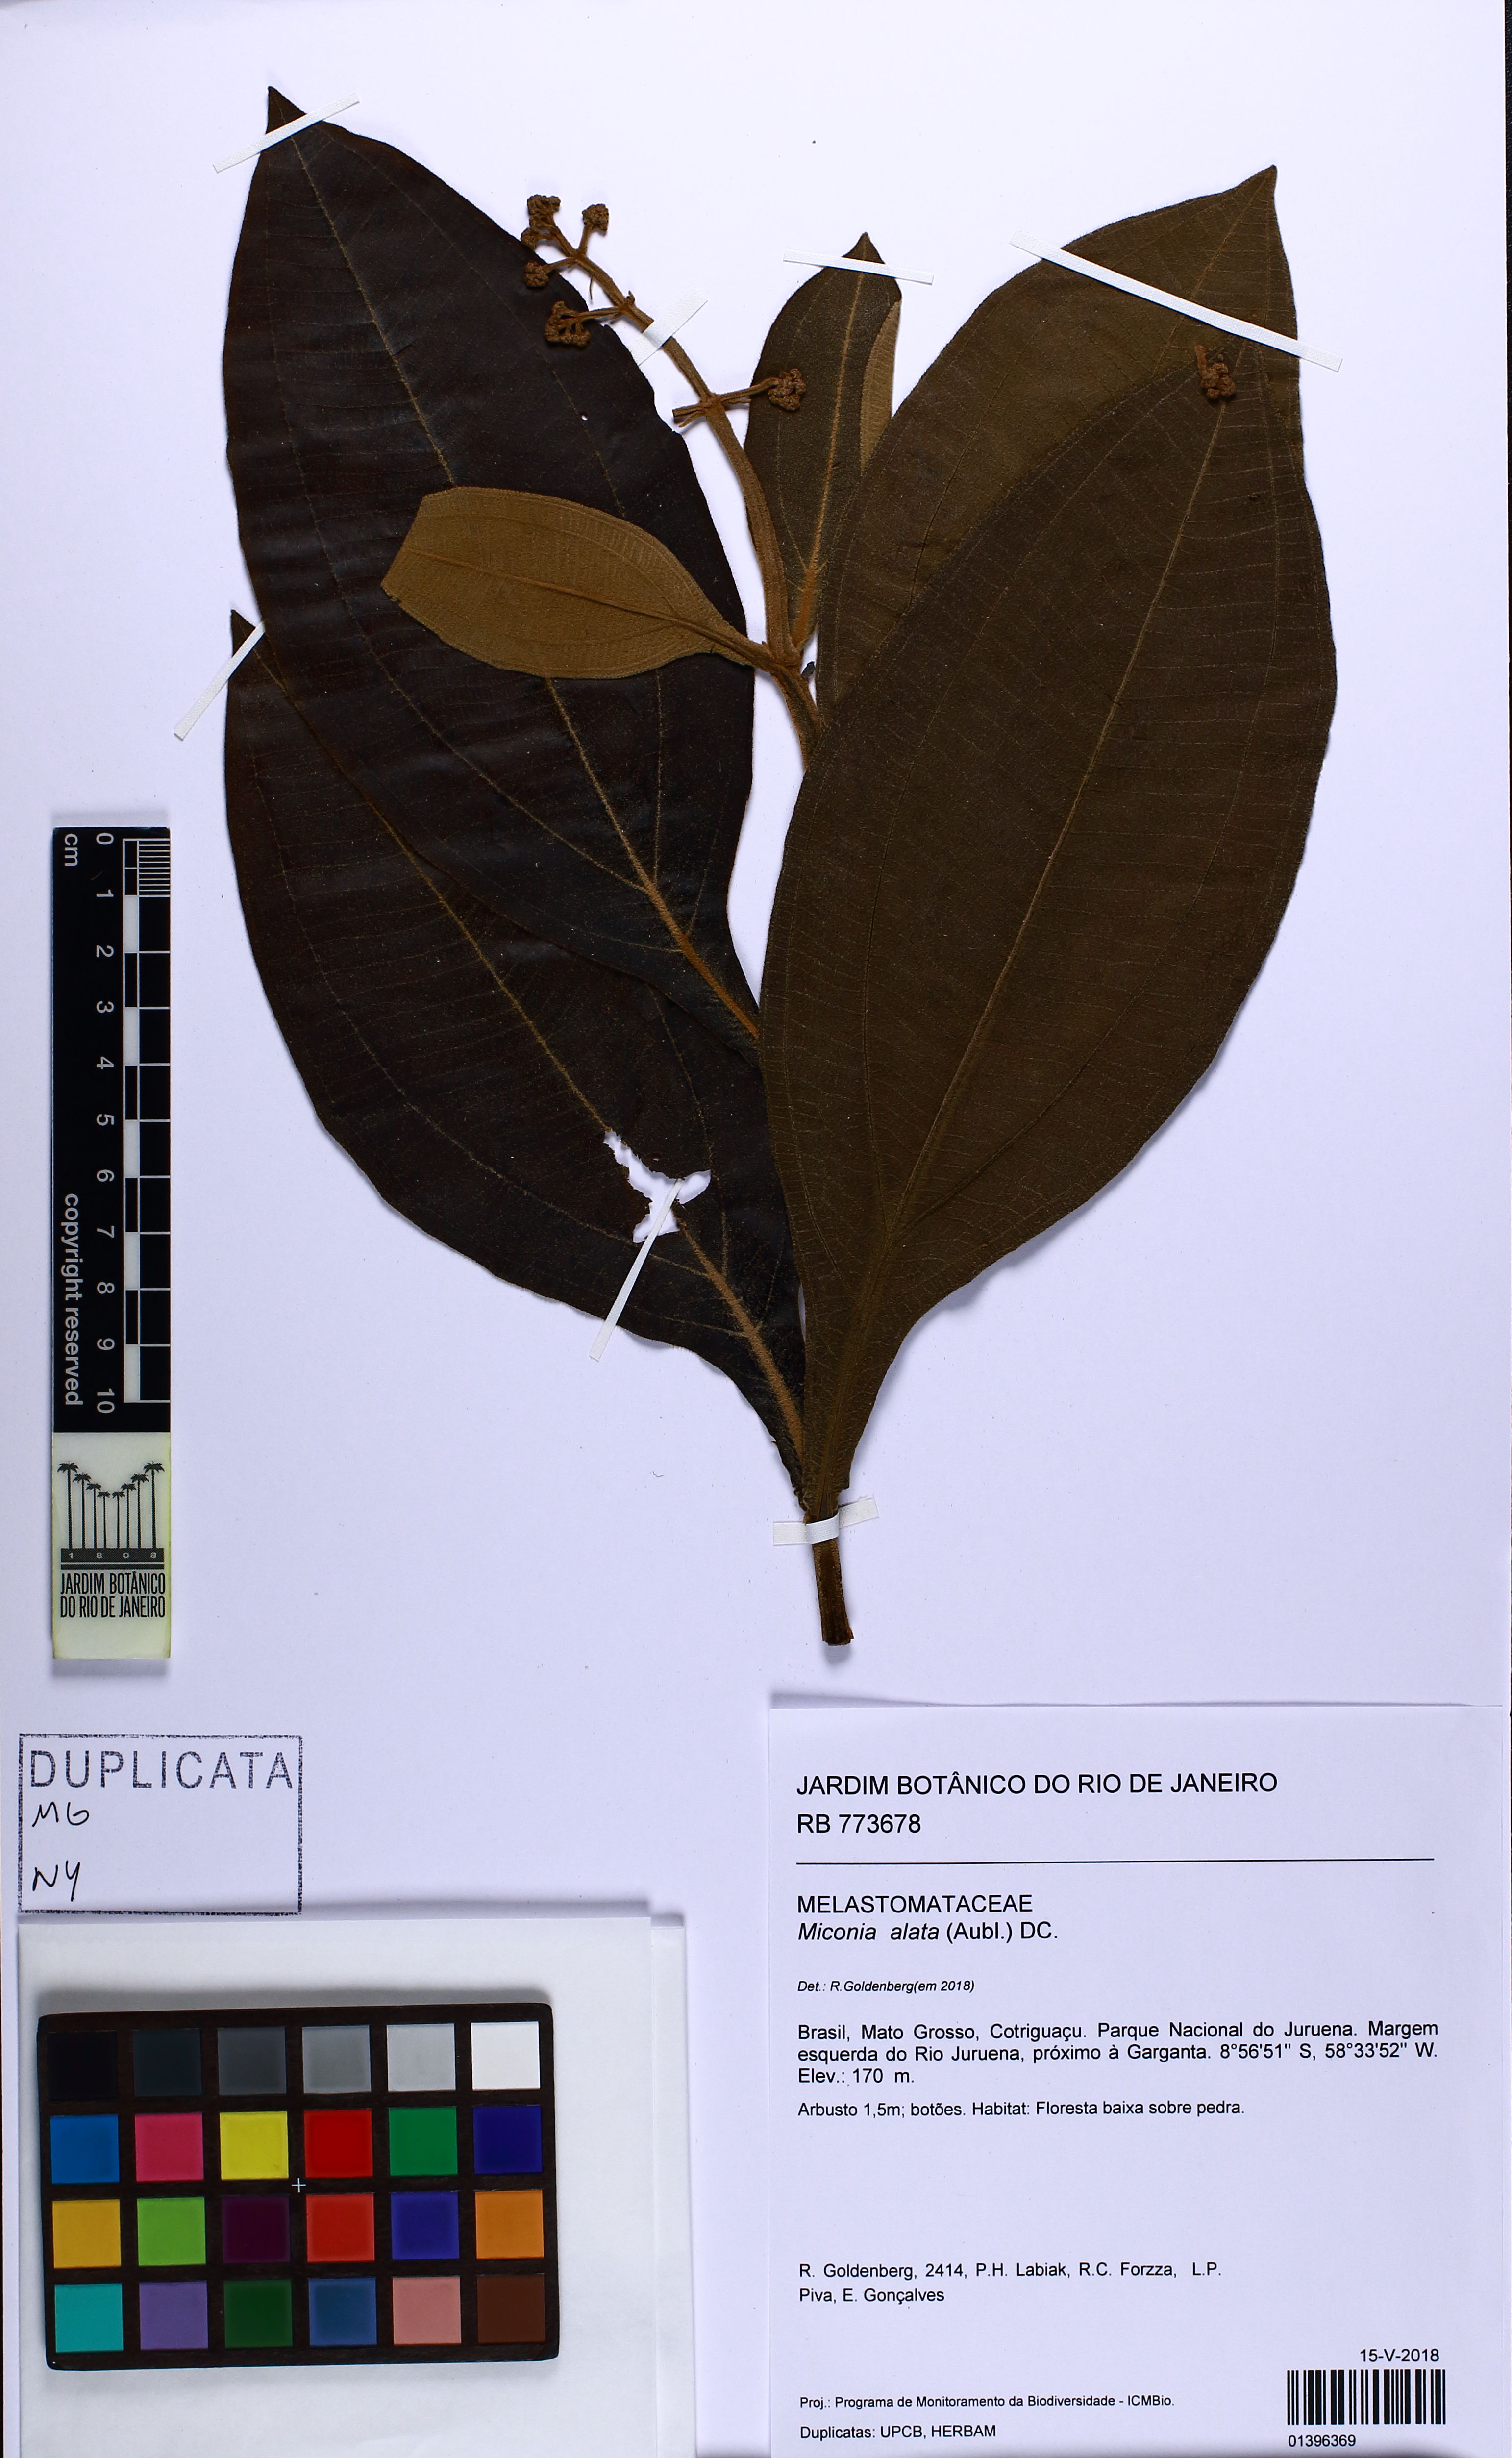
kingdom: Plantae
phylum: Tracheophyta
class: Magnoliopsida
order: Myrtales
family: Melastomataceae
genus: Miconia
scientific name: Miconia alata
